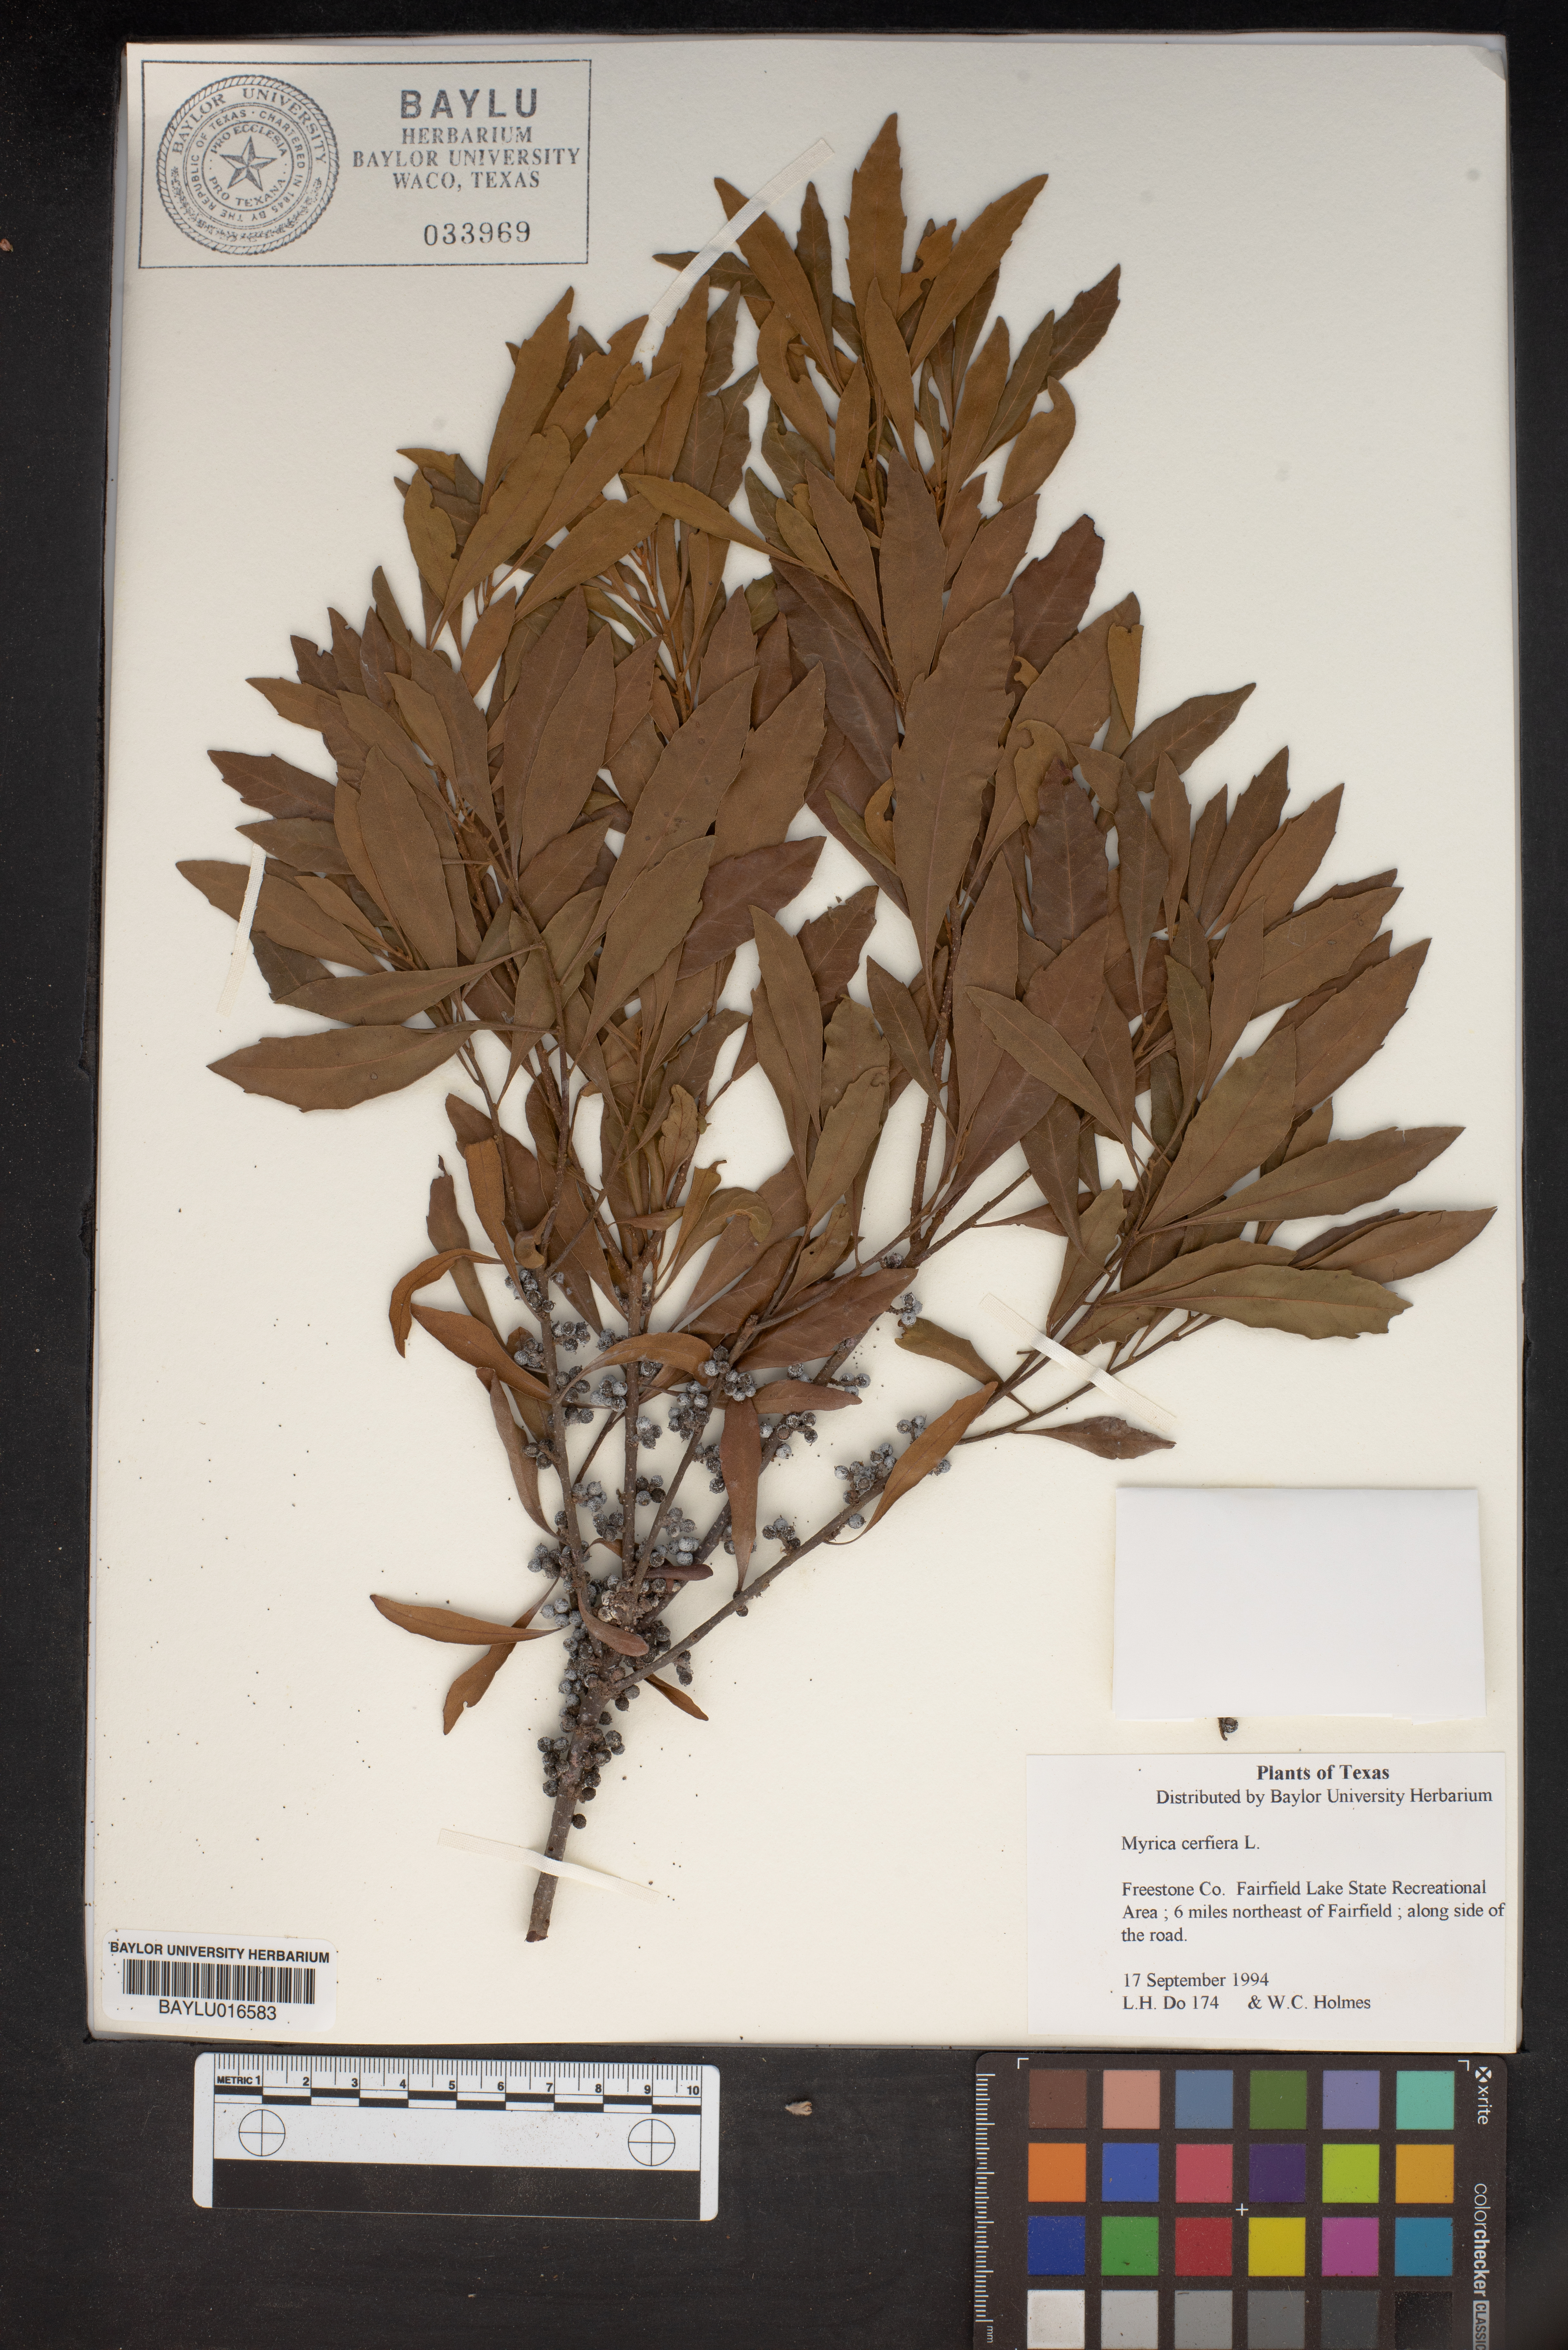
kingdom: Plantae
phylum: Tracheophyta
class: Magnoliopsida
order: Fagales
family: Myricaceae
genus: Morella
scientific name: Morella cerifera
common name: Wax myrtle
